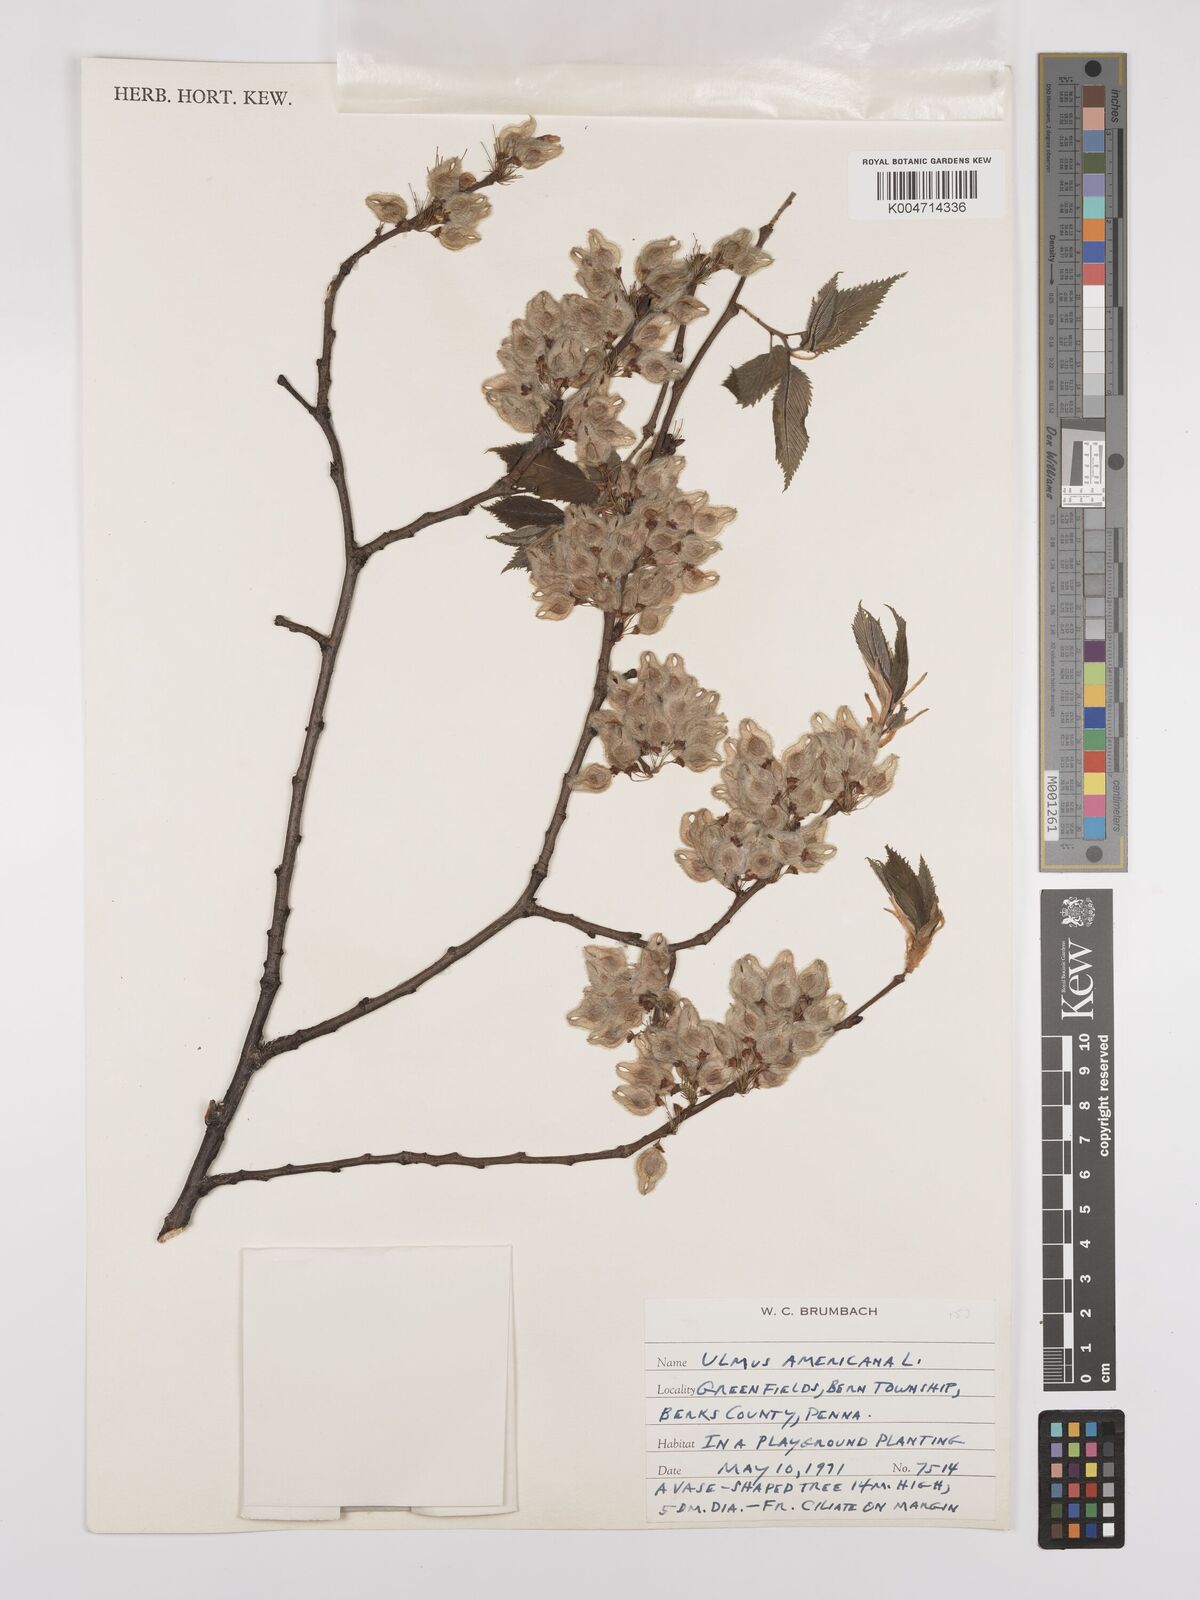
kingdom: Plantae
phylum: Tracheophyta
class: Magnoliopsida
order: Rosales
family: Ulmaceae
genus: Ulmus
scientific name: Ulmus americana
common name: American elm
